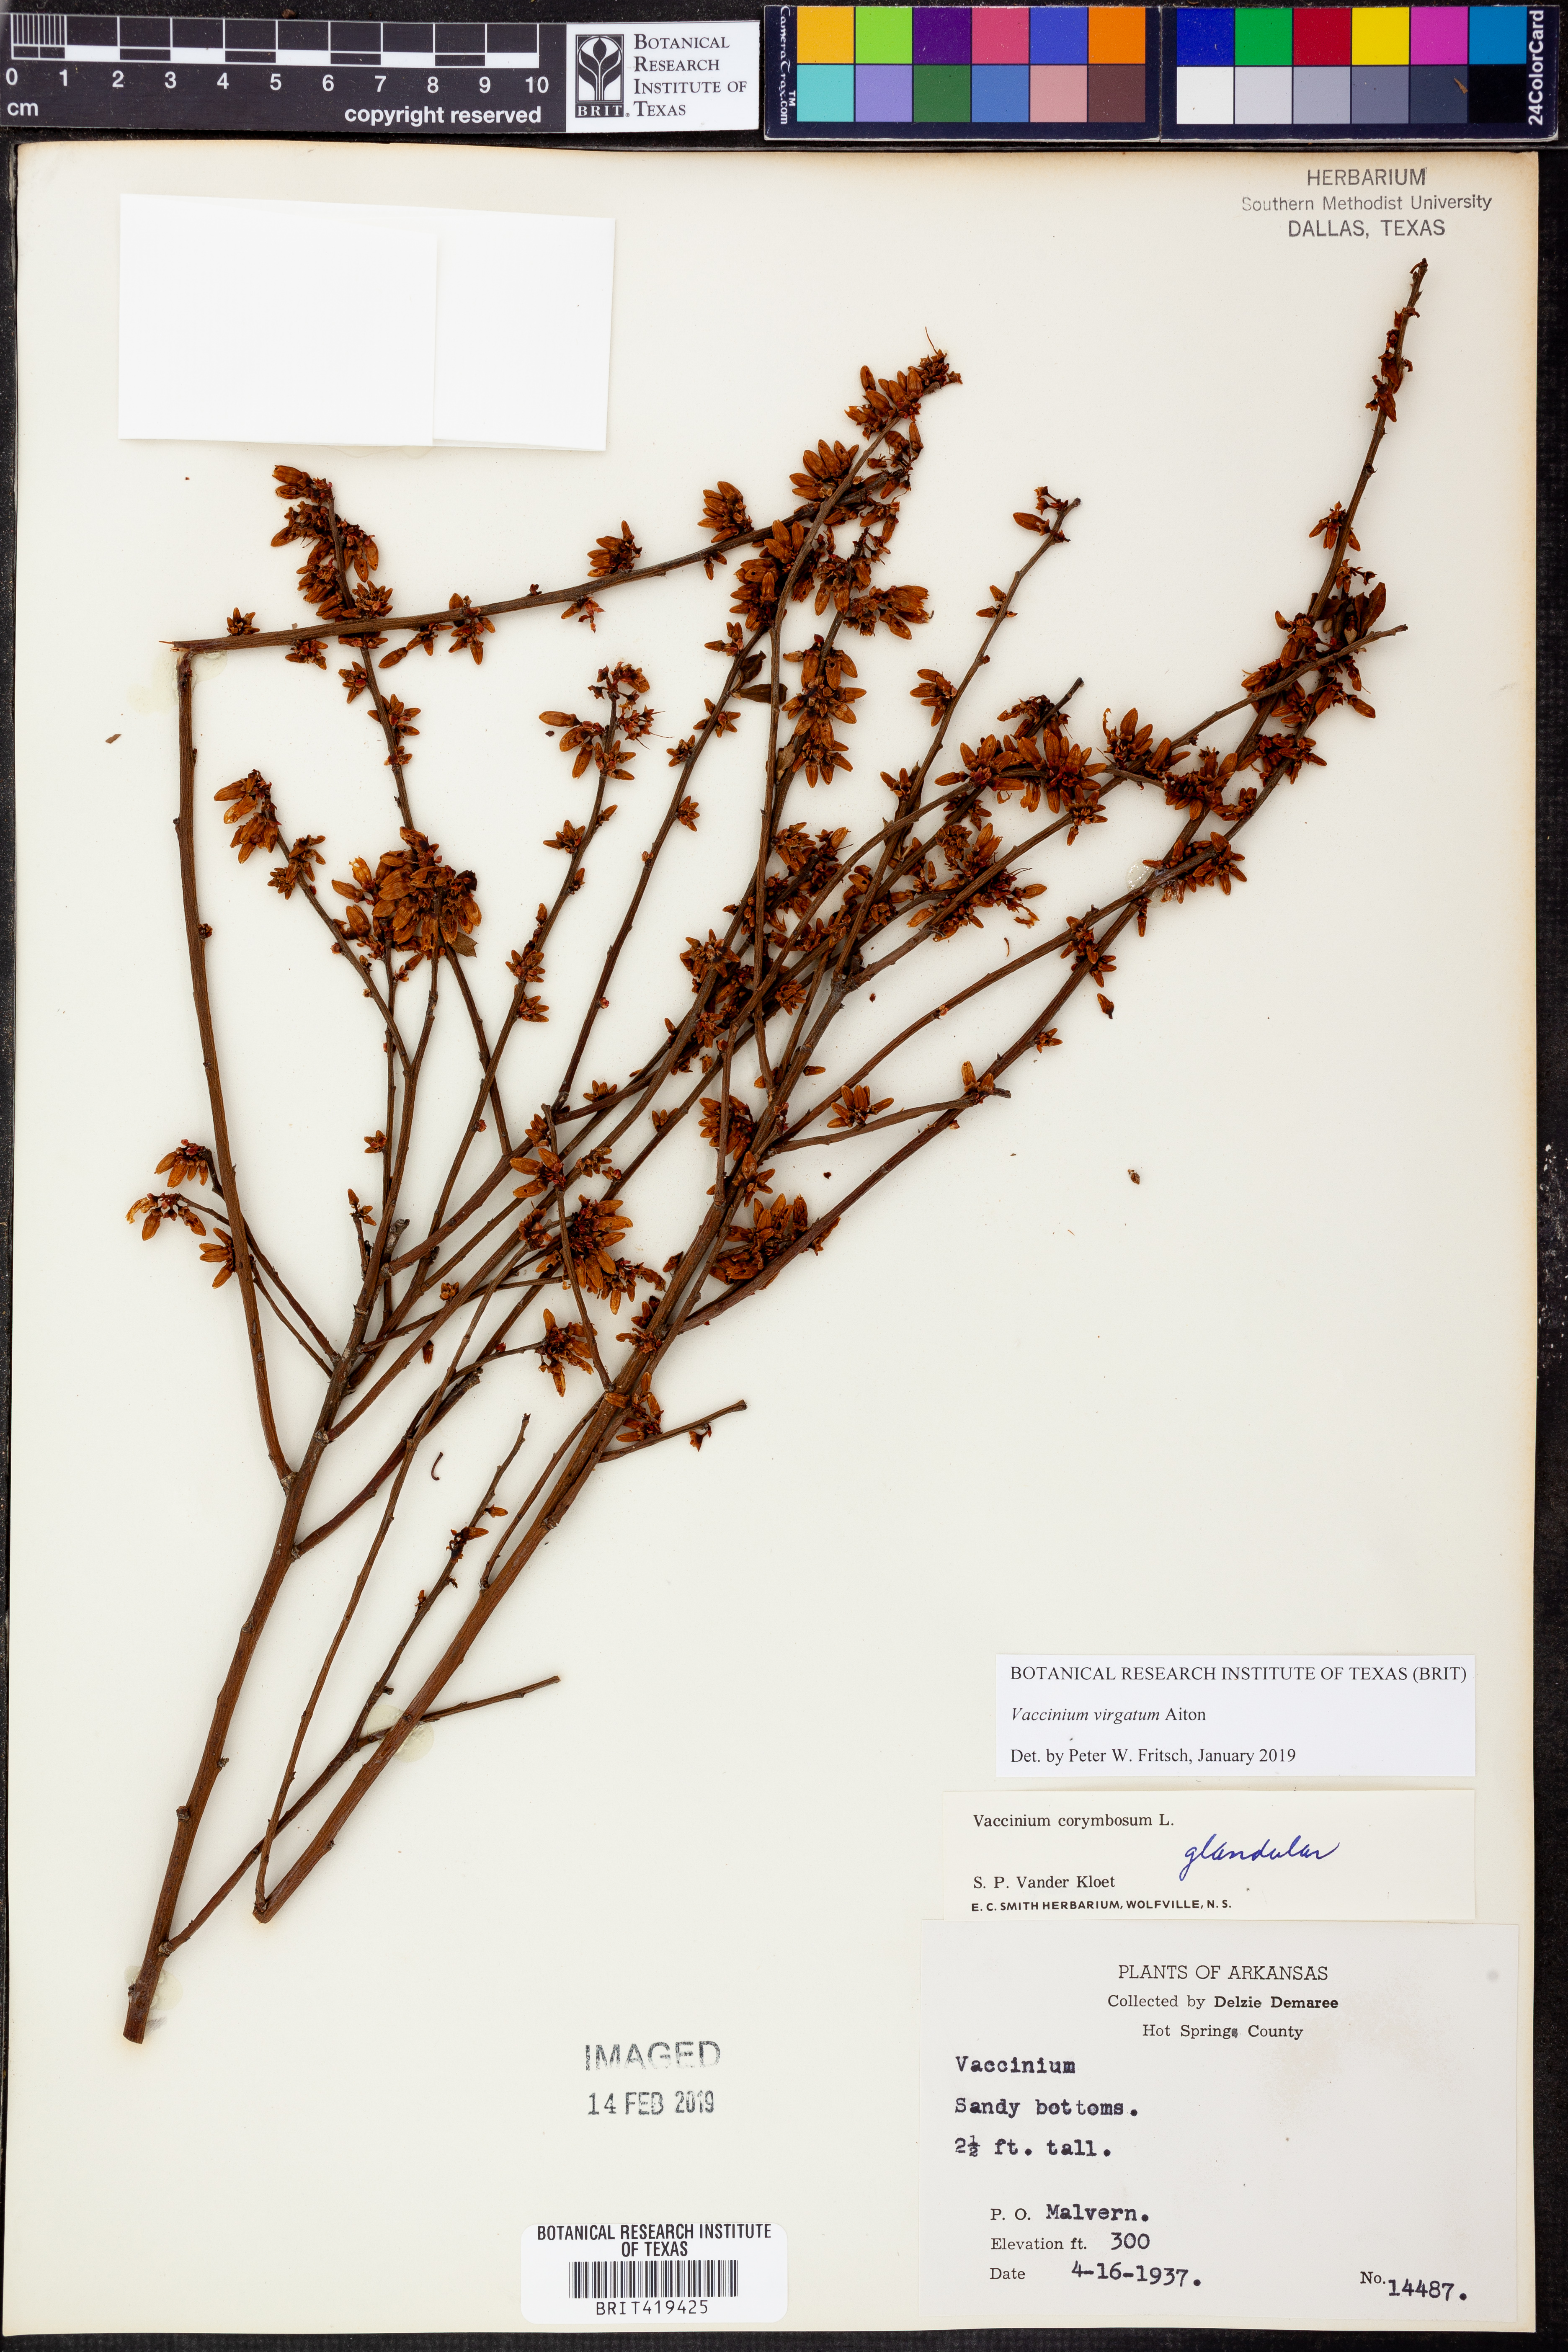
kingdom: Plantae
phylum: Tracheophyta
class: Magnoliopsida
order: Ericales
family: Ericaceae
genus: Vaccinium
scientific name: Vaccinium corymbosum
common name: Blueberry
